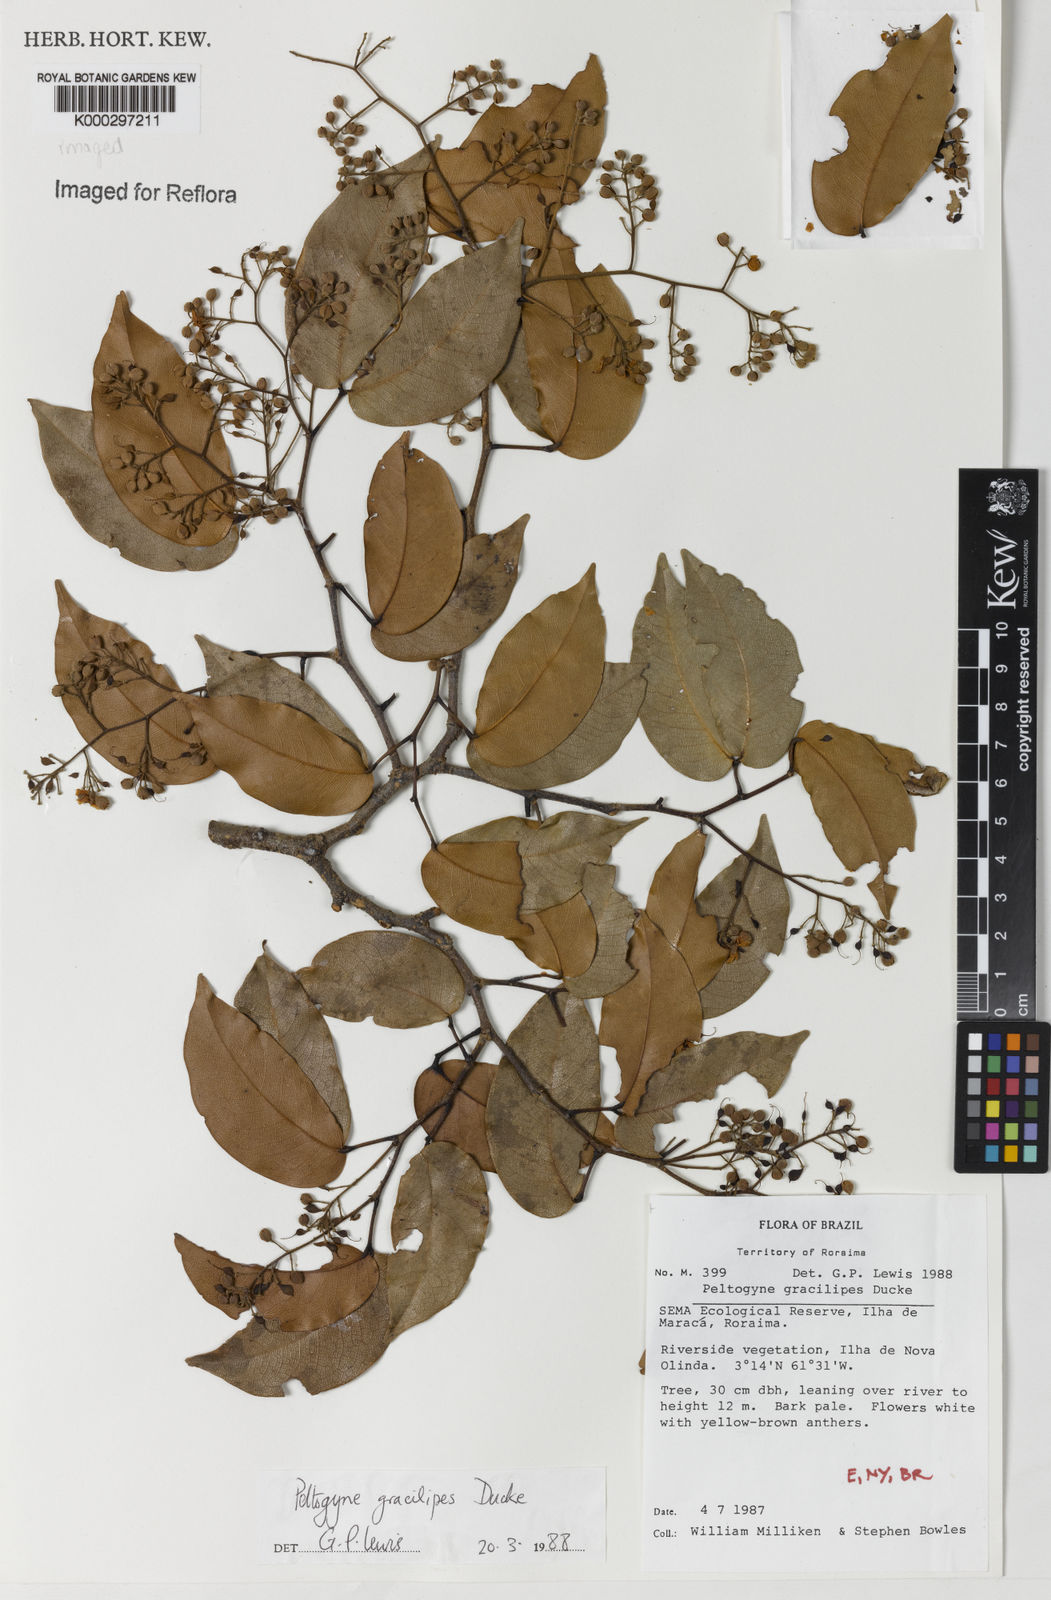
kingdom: Plantae
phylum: Tracheophyta
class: Magnoliopsida
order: Fabales
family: Fabaceae
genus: Peltogyne
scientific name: Peltogyne gracilipes
